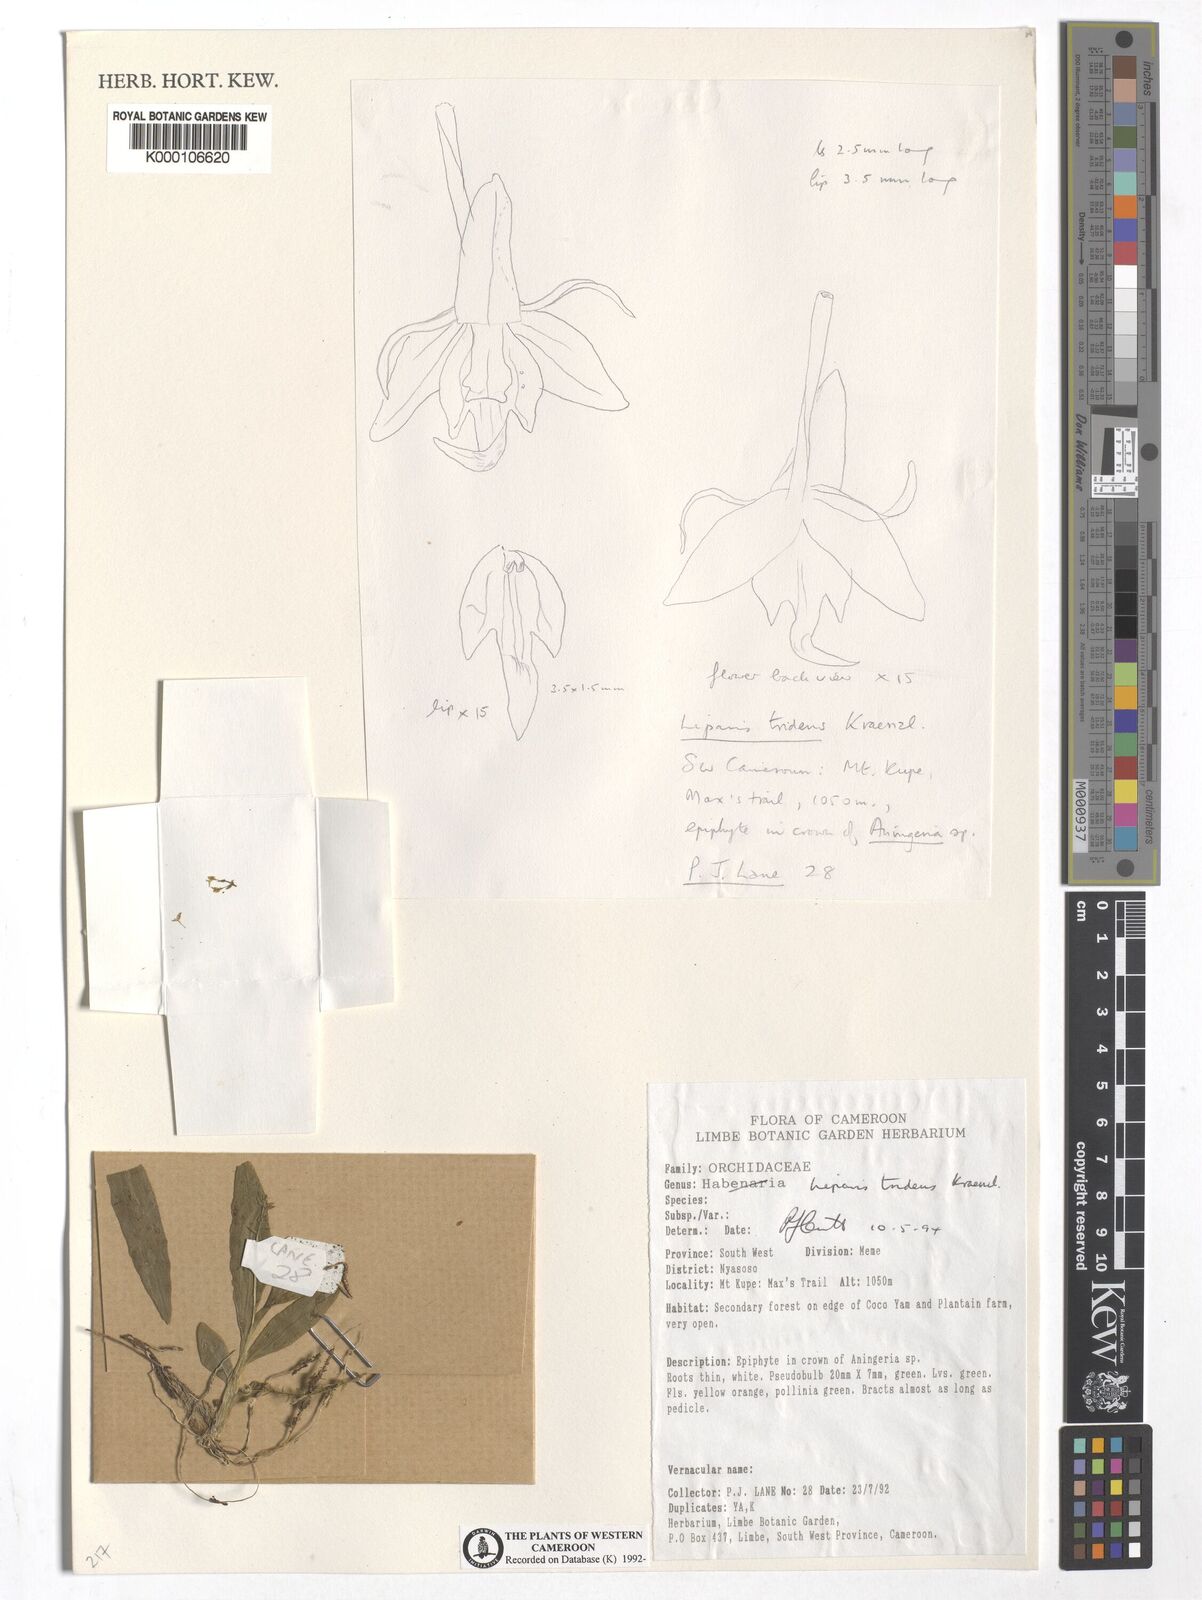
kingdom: Plantae
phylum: Tracheophyta
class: Liliopsida
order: Asparagales
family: Orchidaceae
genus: Liparis
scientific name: Liparis tridens
